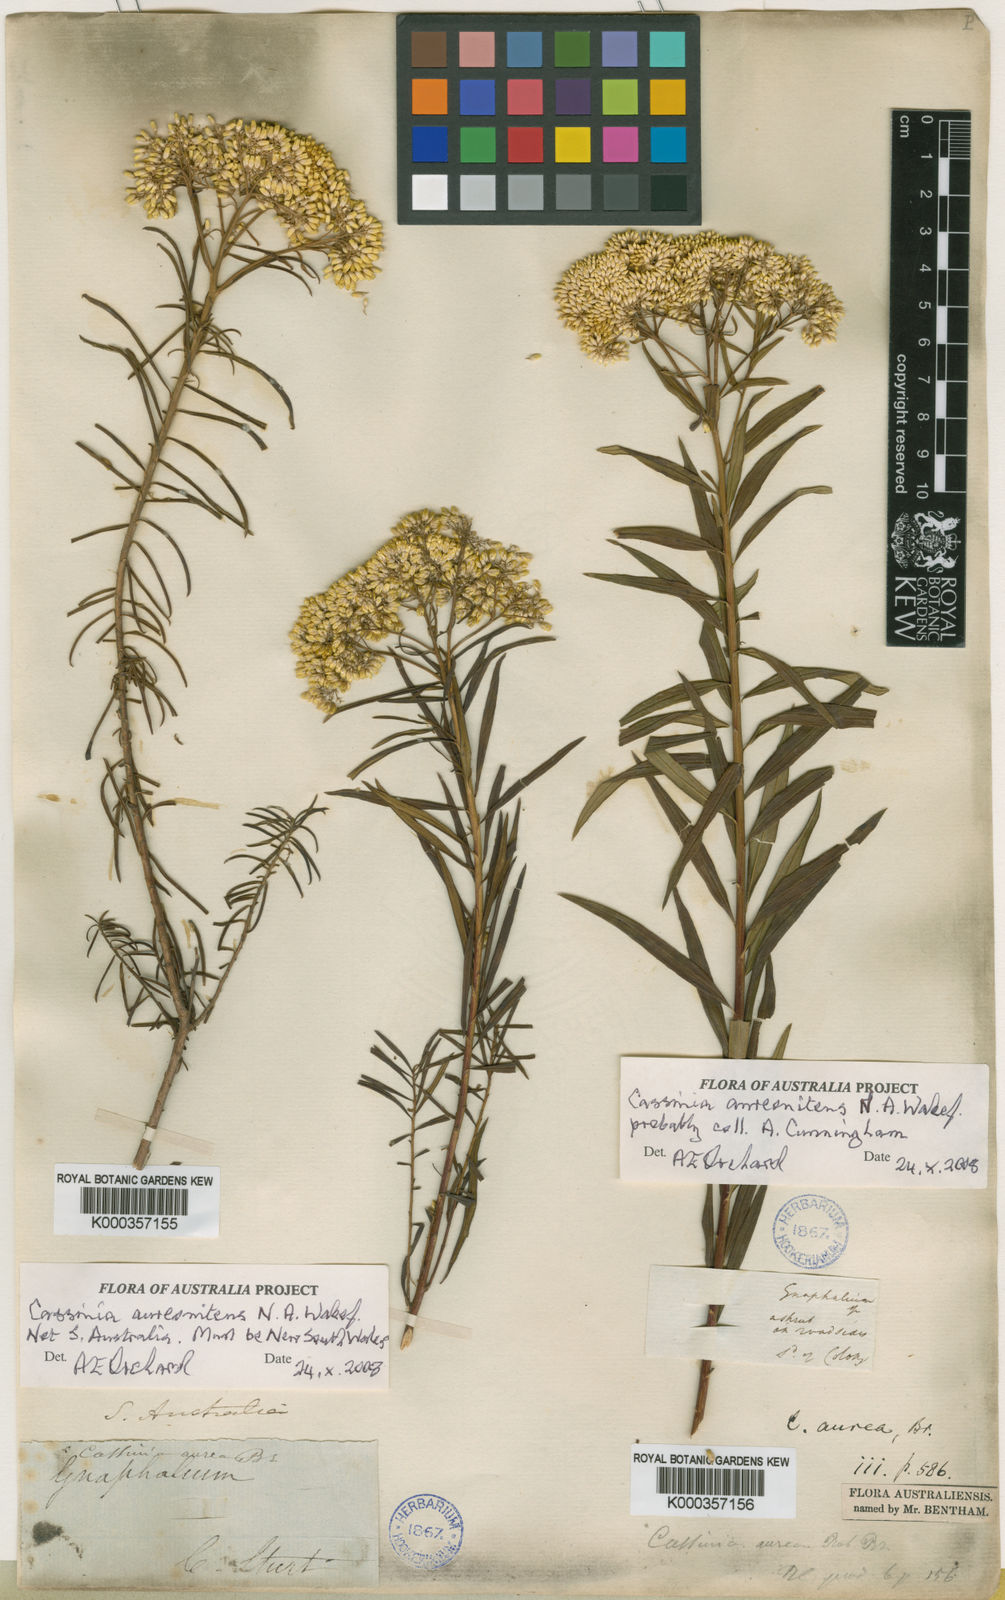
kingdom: Plantae
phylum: Tracheophyta
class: Magnoliopsida
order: Asterales
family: Asteraceae
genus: Cassinia
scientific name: Cassinia aureonitens
